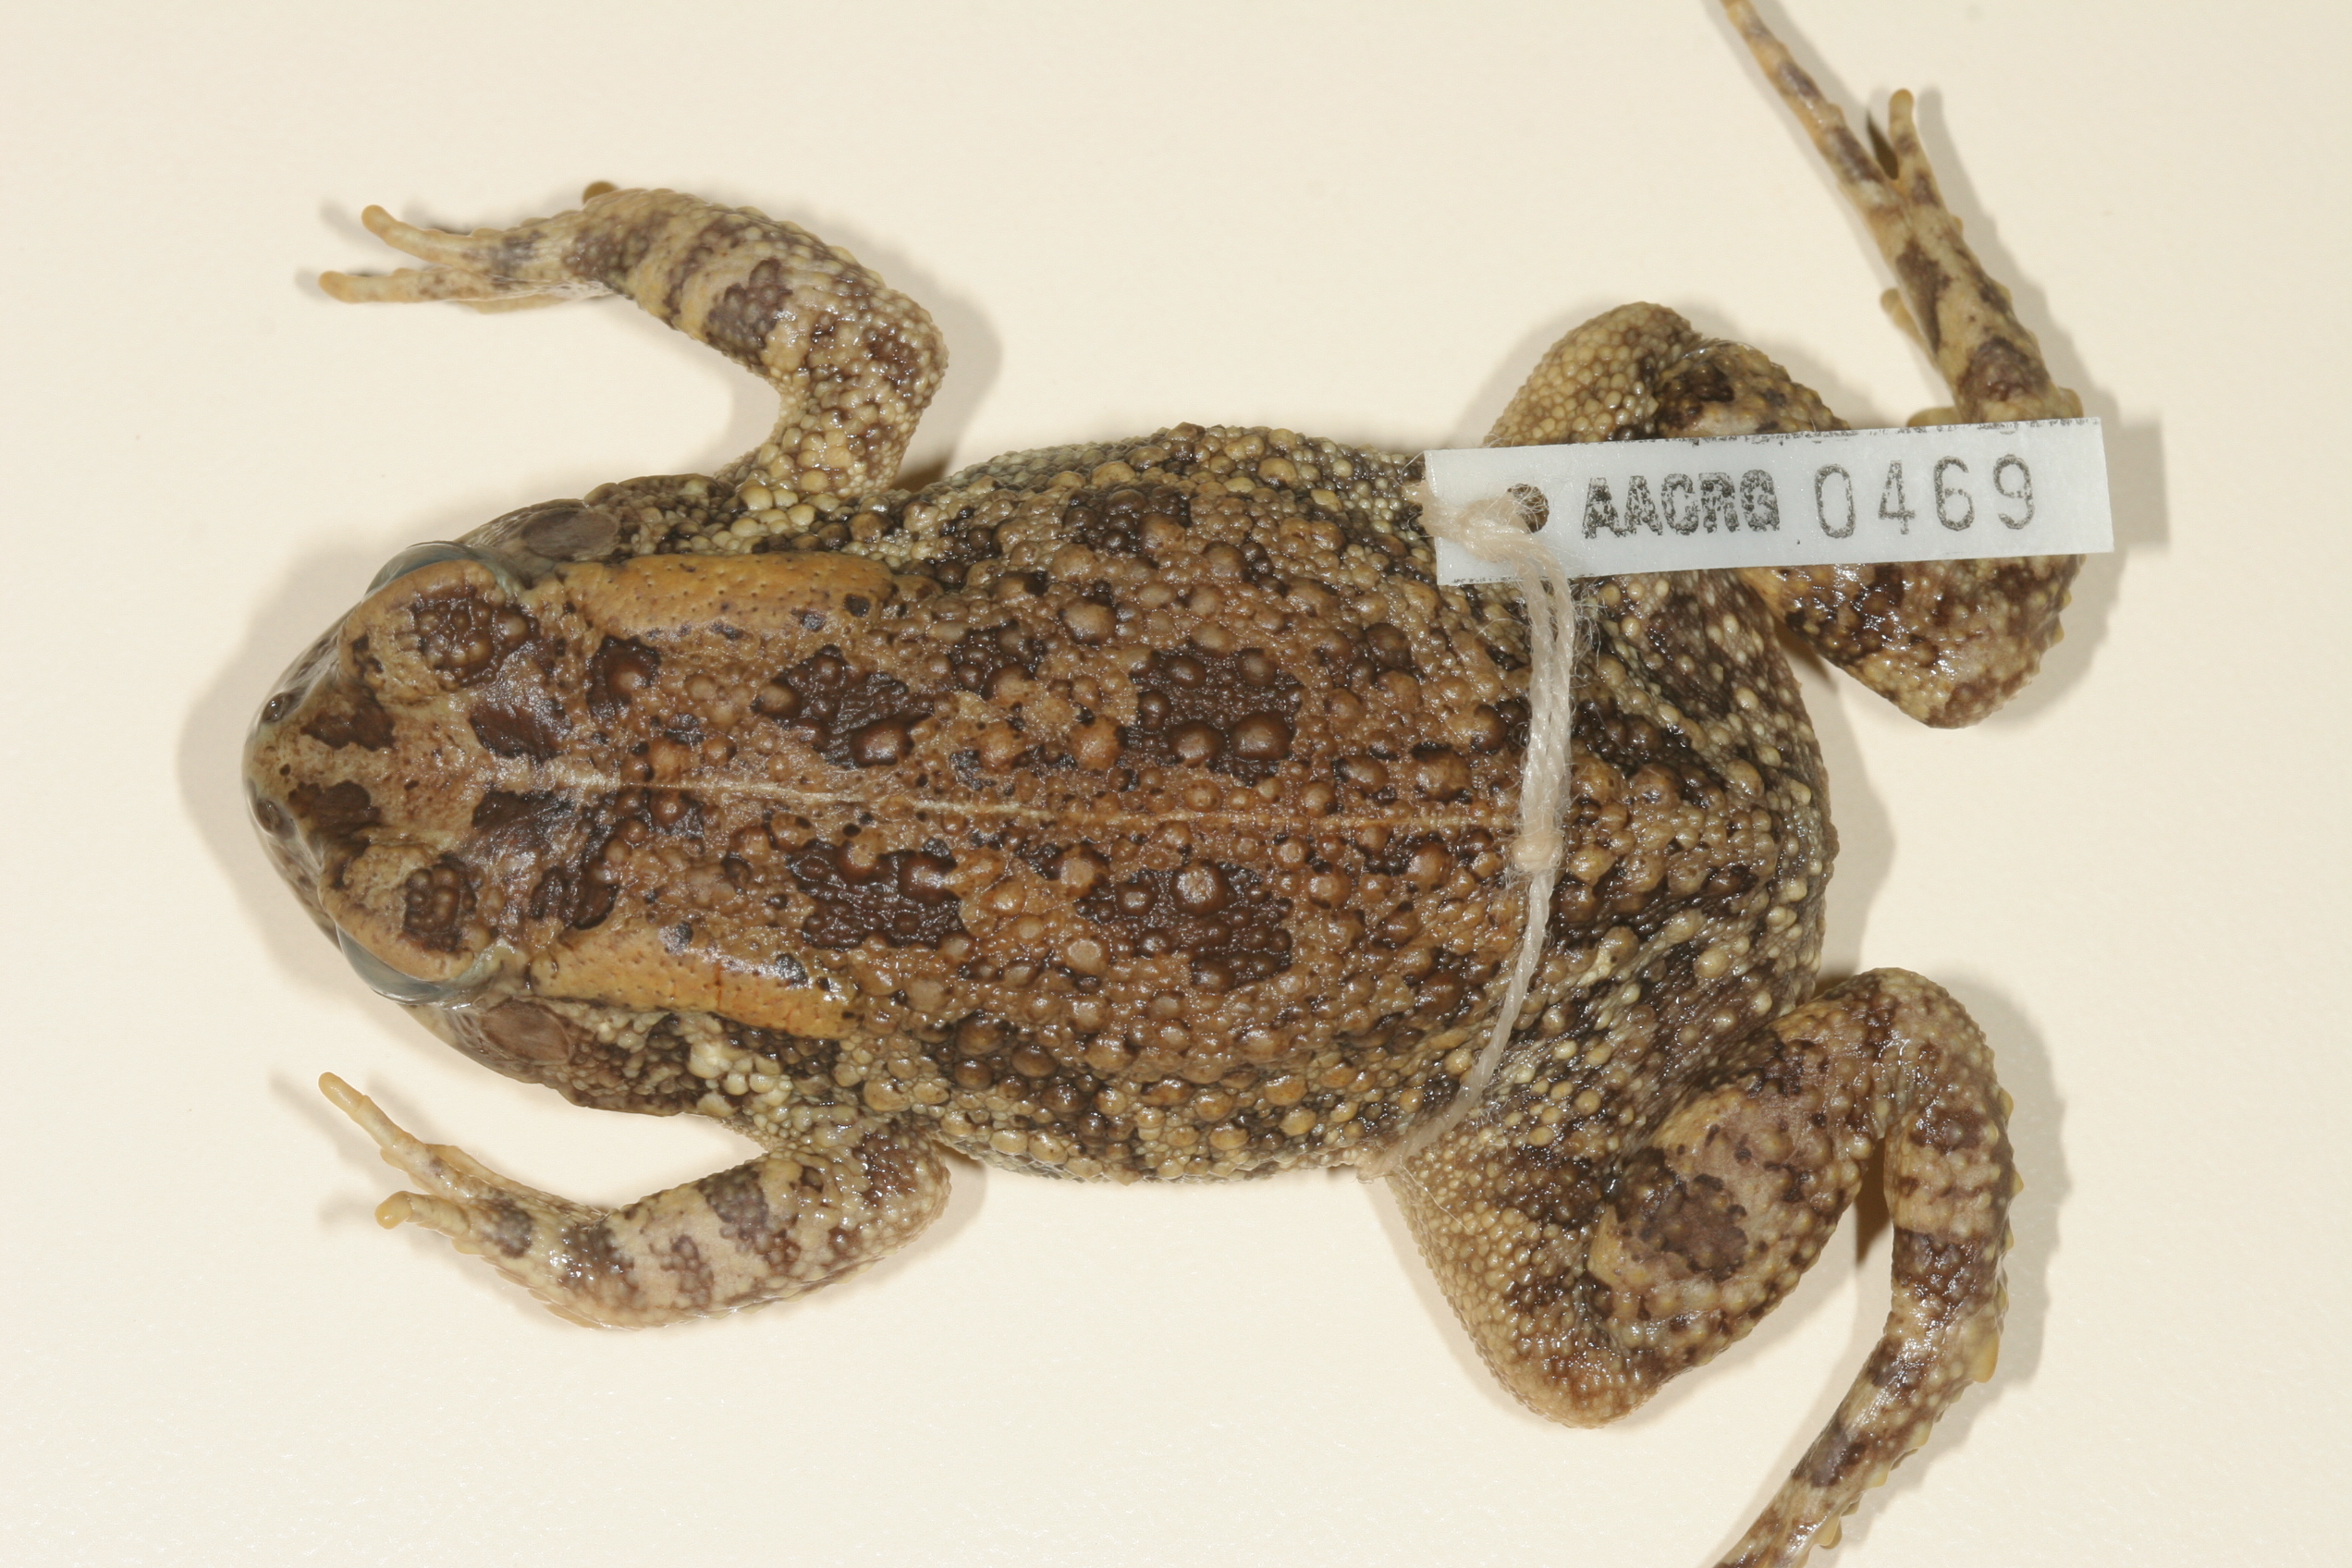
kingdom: Animalia
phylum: Chordata
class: Amphibia
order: Anura
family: Bufonidae
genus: Sclerophrys
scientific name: Sclerophrys gutturalis
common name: African common toad
